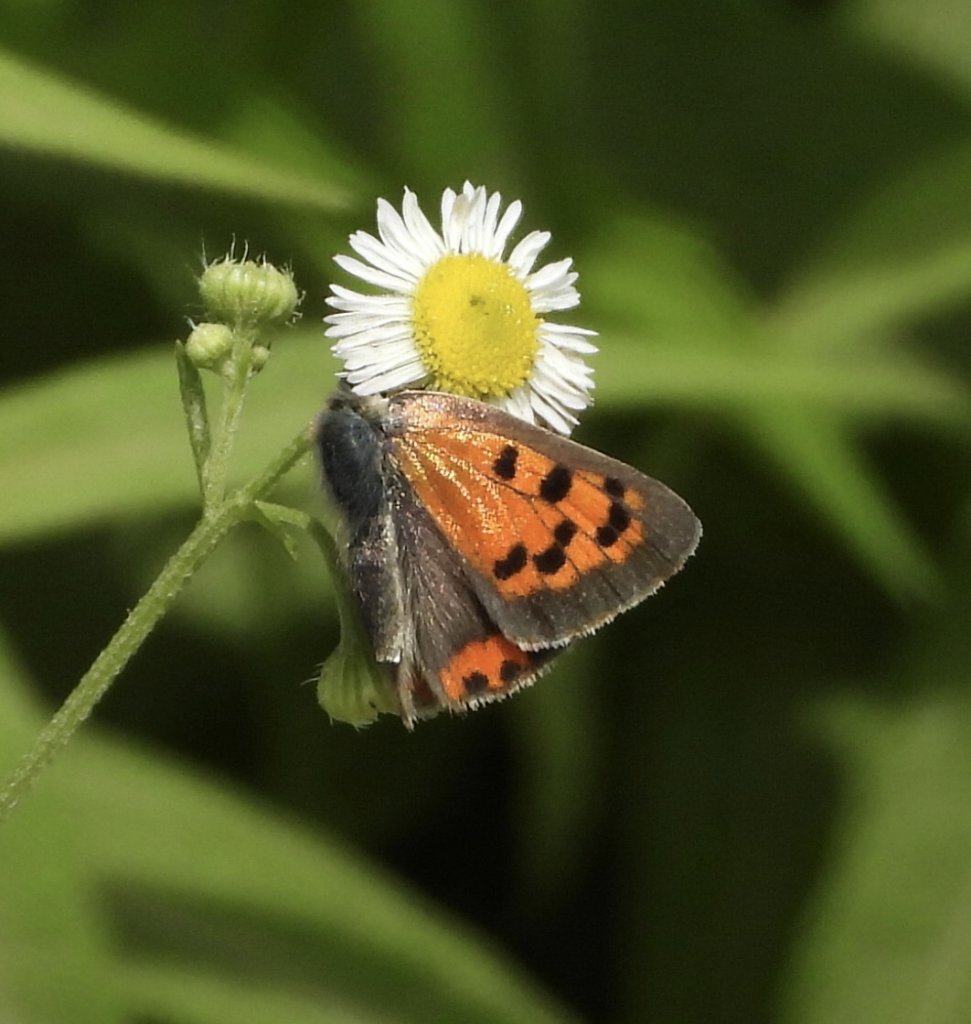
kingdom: Animalia
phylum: Arthropoda
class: Insecta
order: Lepidoptera
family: Lycaenidae
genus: Lycaena
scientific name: Lycaena phlaeas
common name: American Copper
